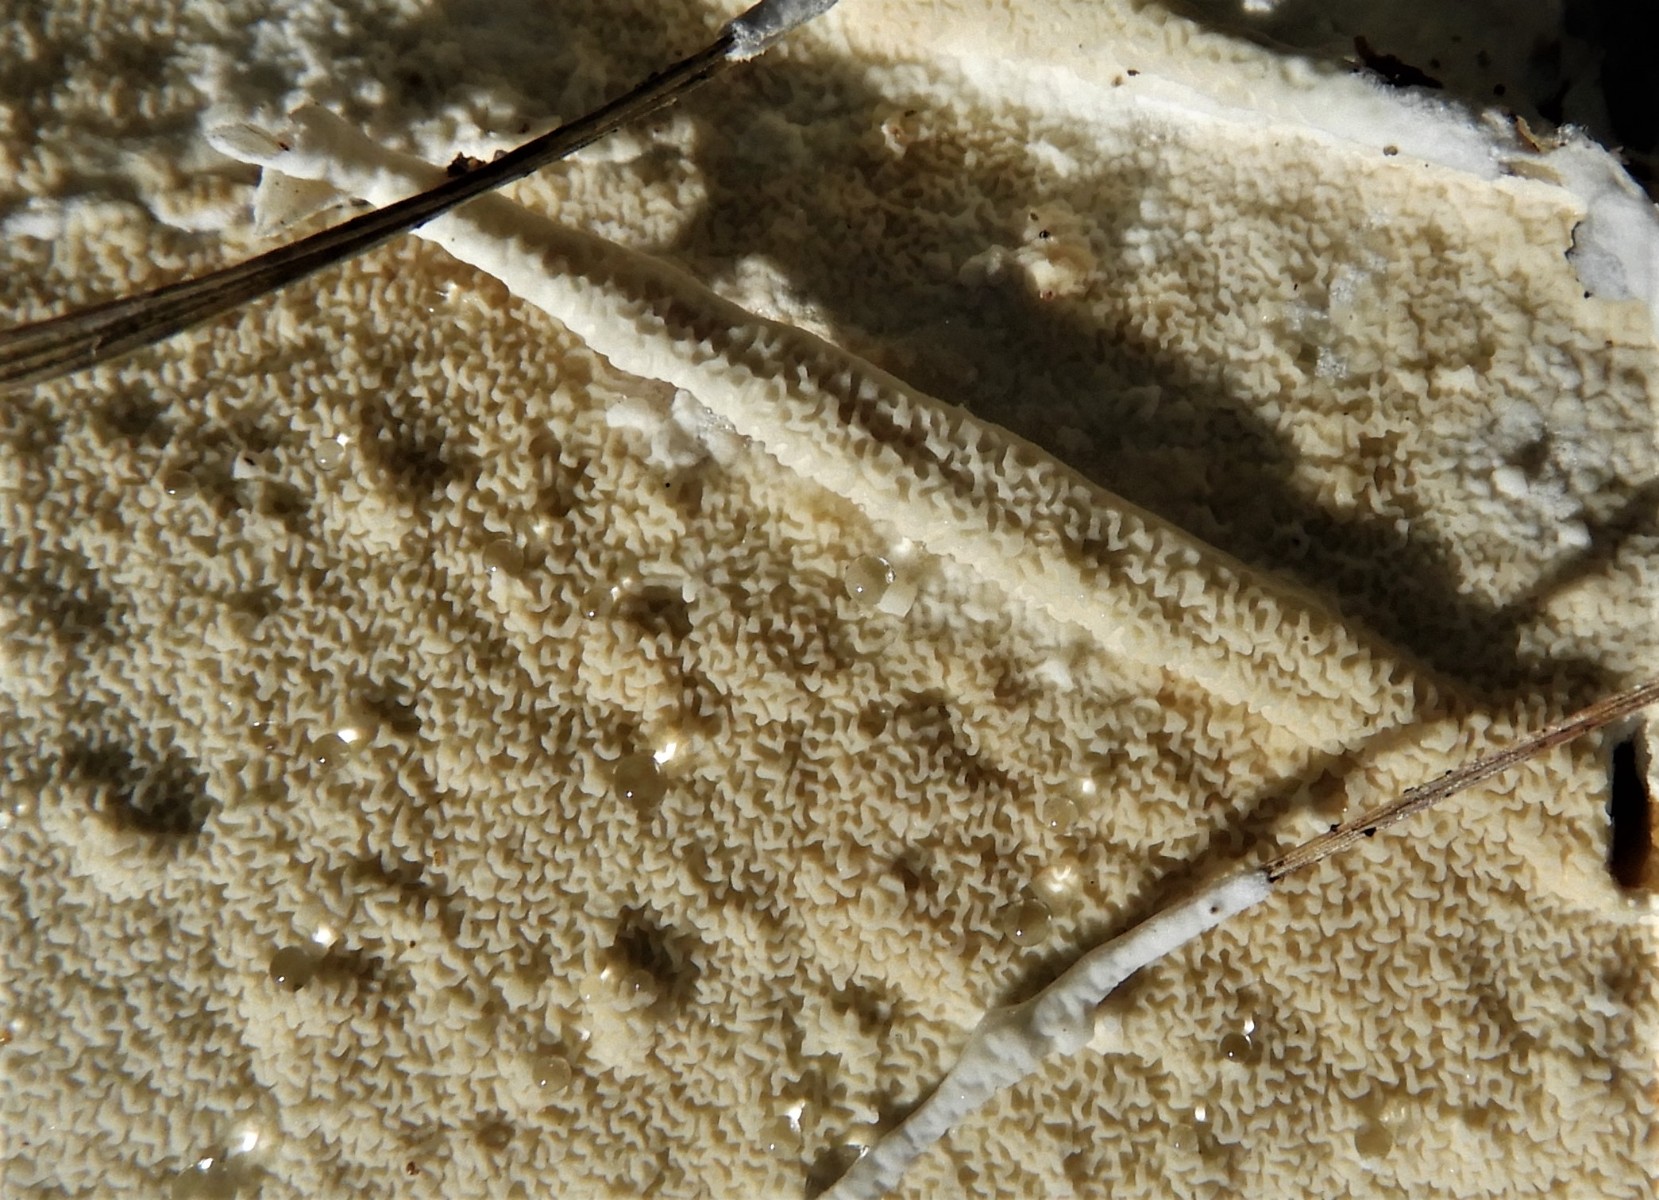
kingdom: Fungi
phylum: Basidiomycota
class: Agaricomycetes
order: Hymenochaetales
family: Schizoporaceae
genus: Xylodon
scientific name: Xylodon subtropicus
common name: labyrint-tandsvamp
